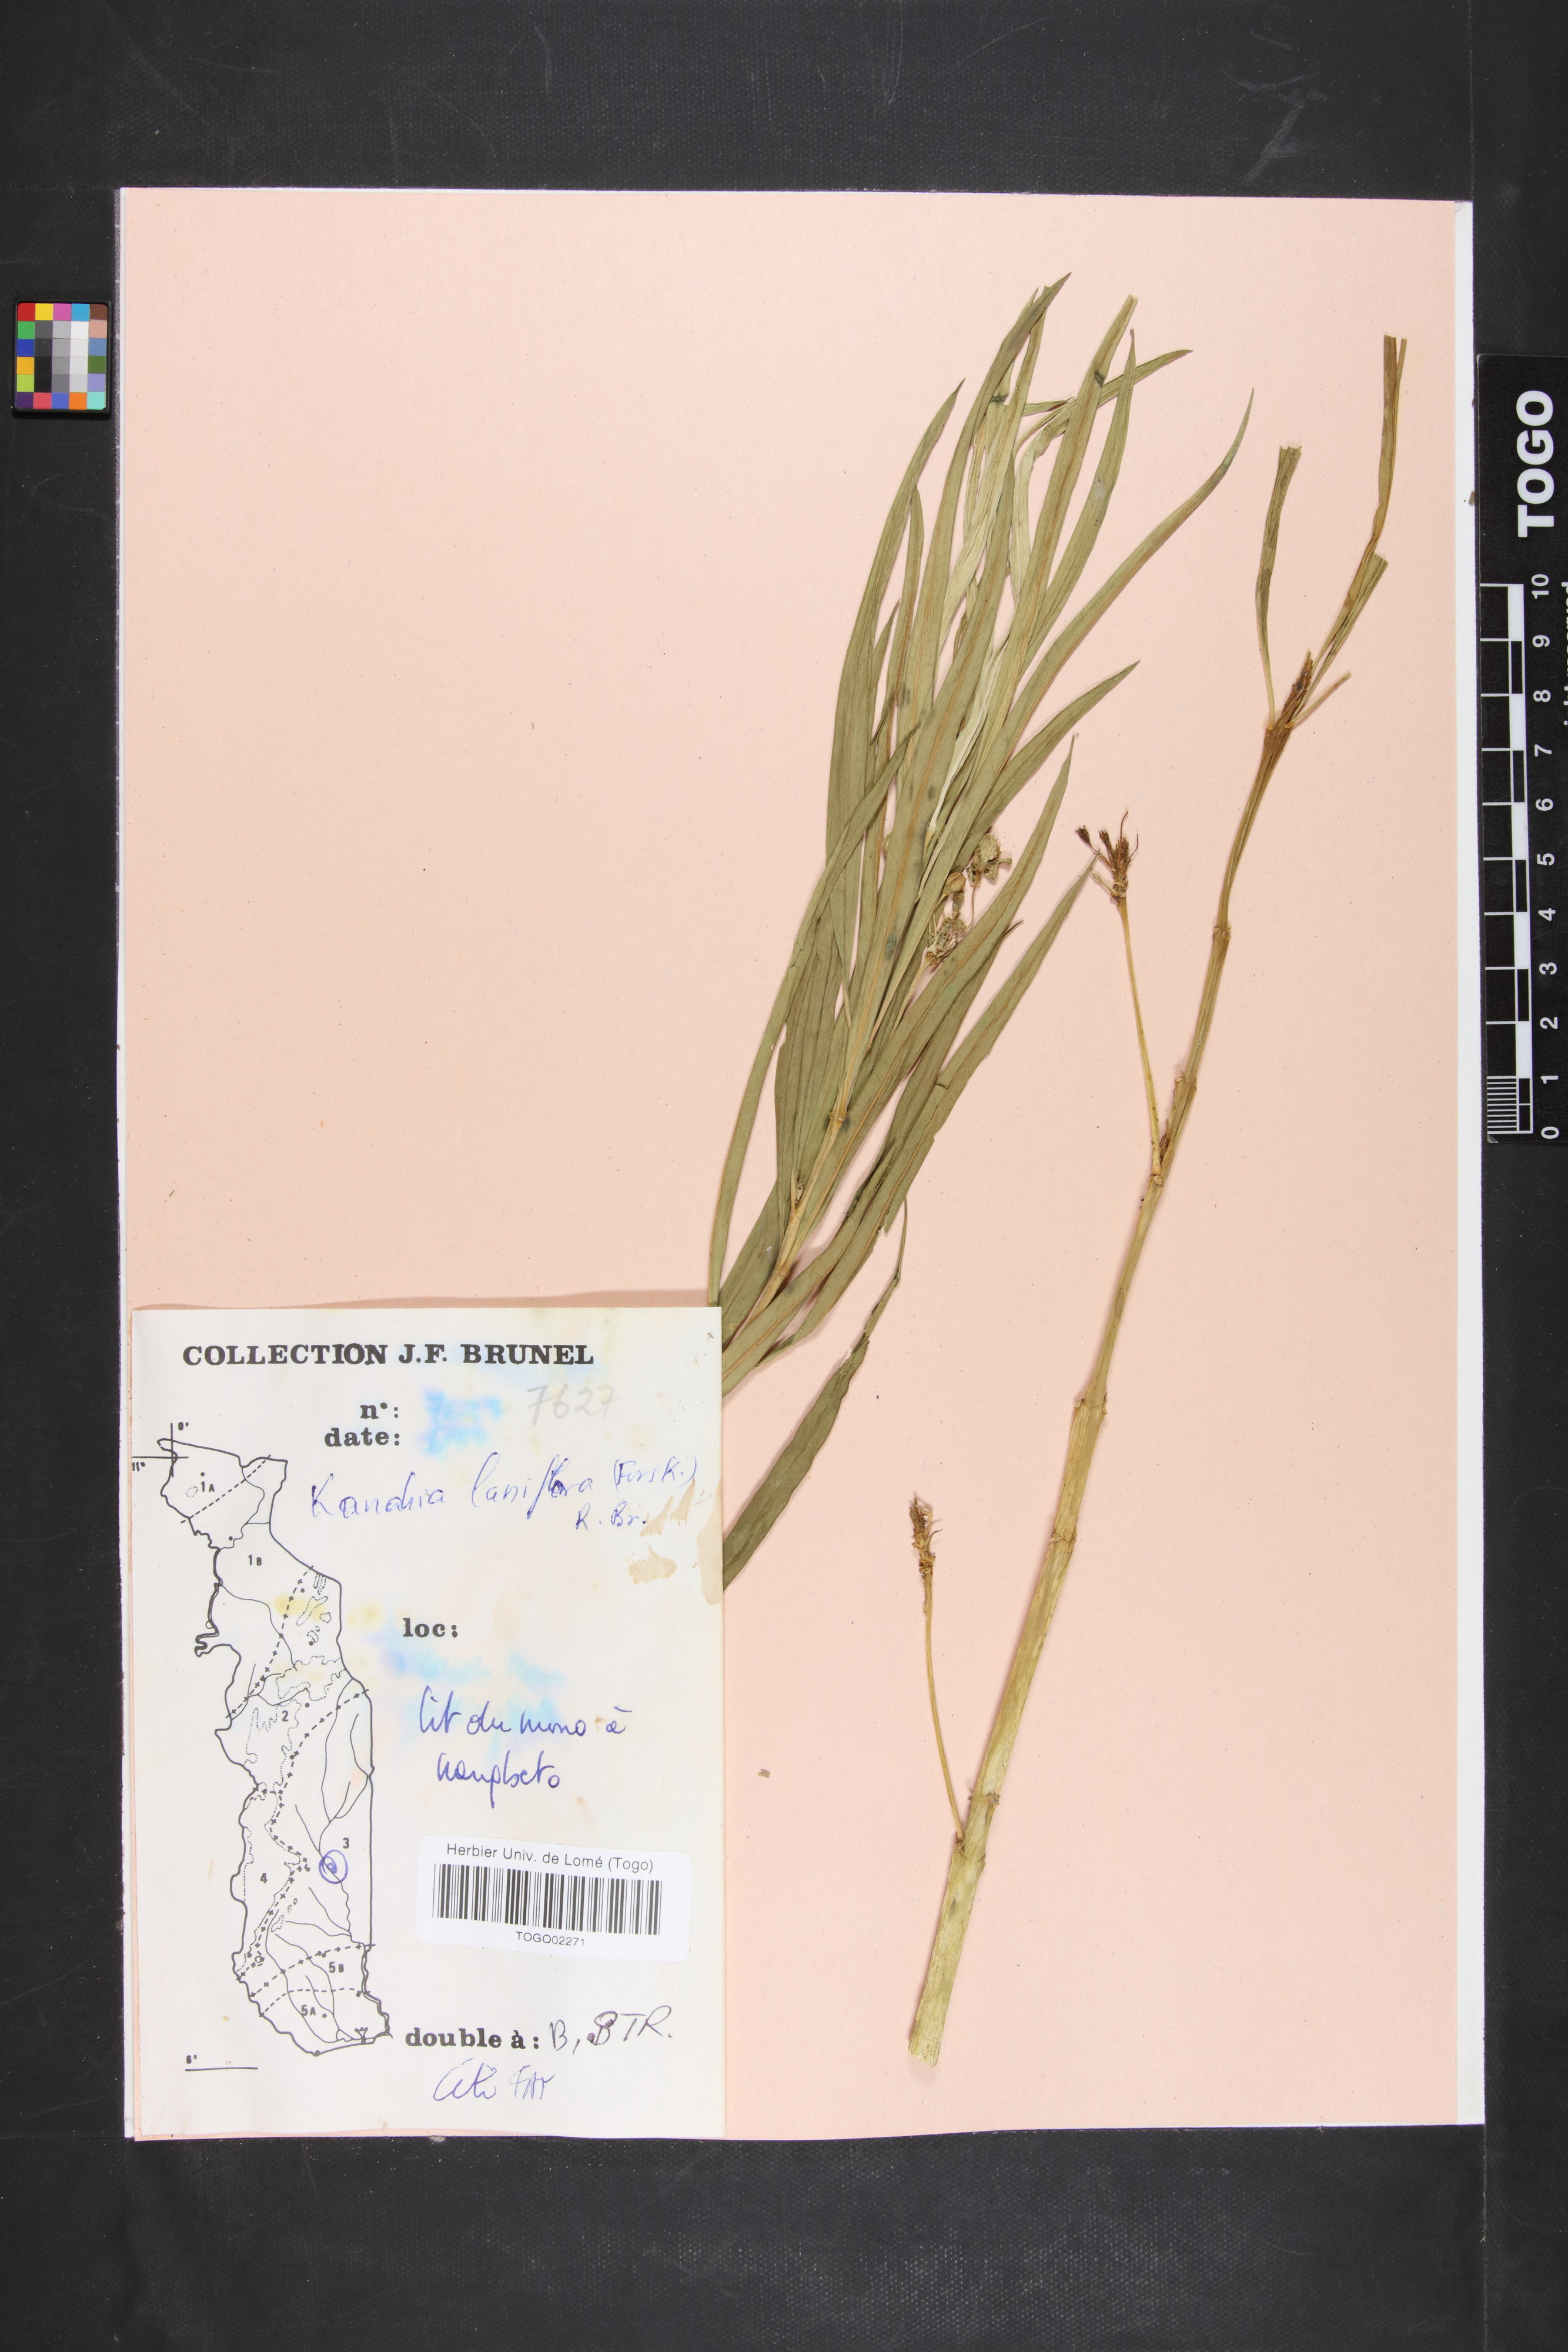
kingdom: Plantae
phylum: Tracheophyta
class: Magnoliopsida
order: Gentianales
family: Apocynaceae
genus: Kanahia
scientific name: Kanahia laniflora
